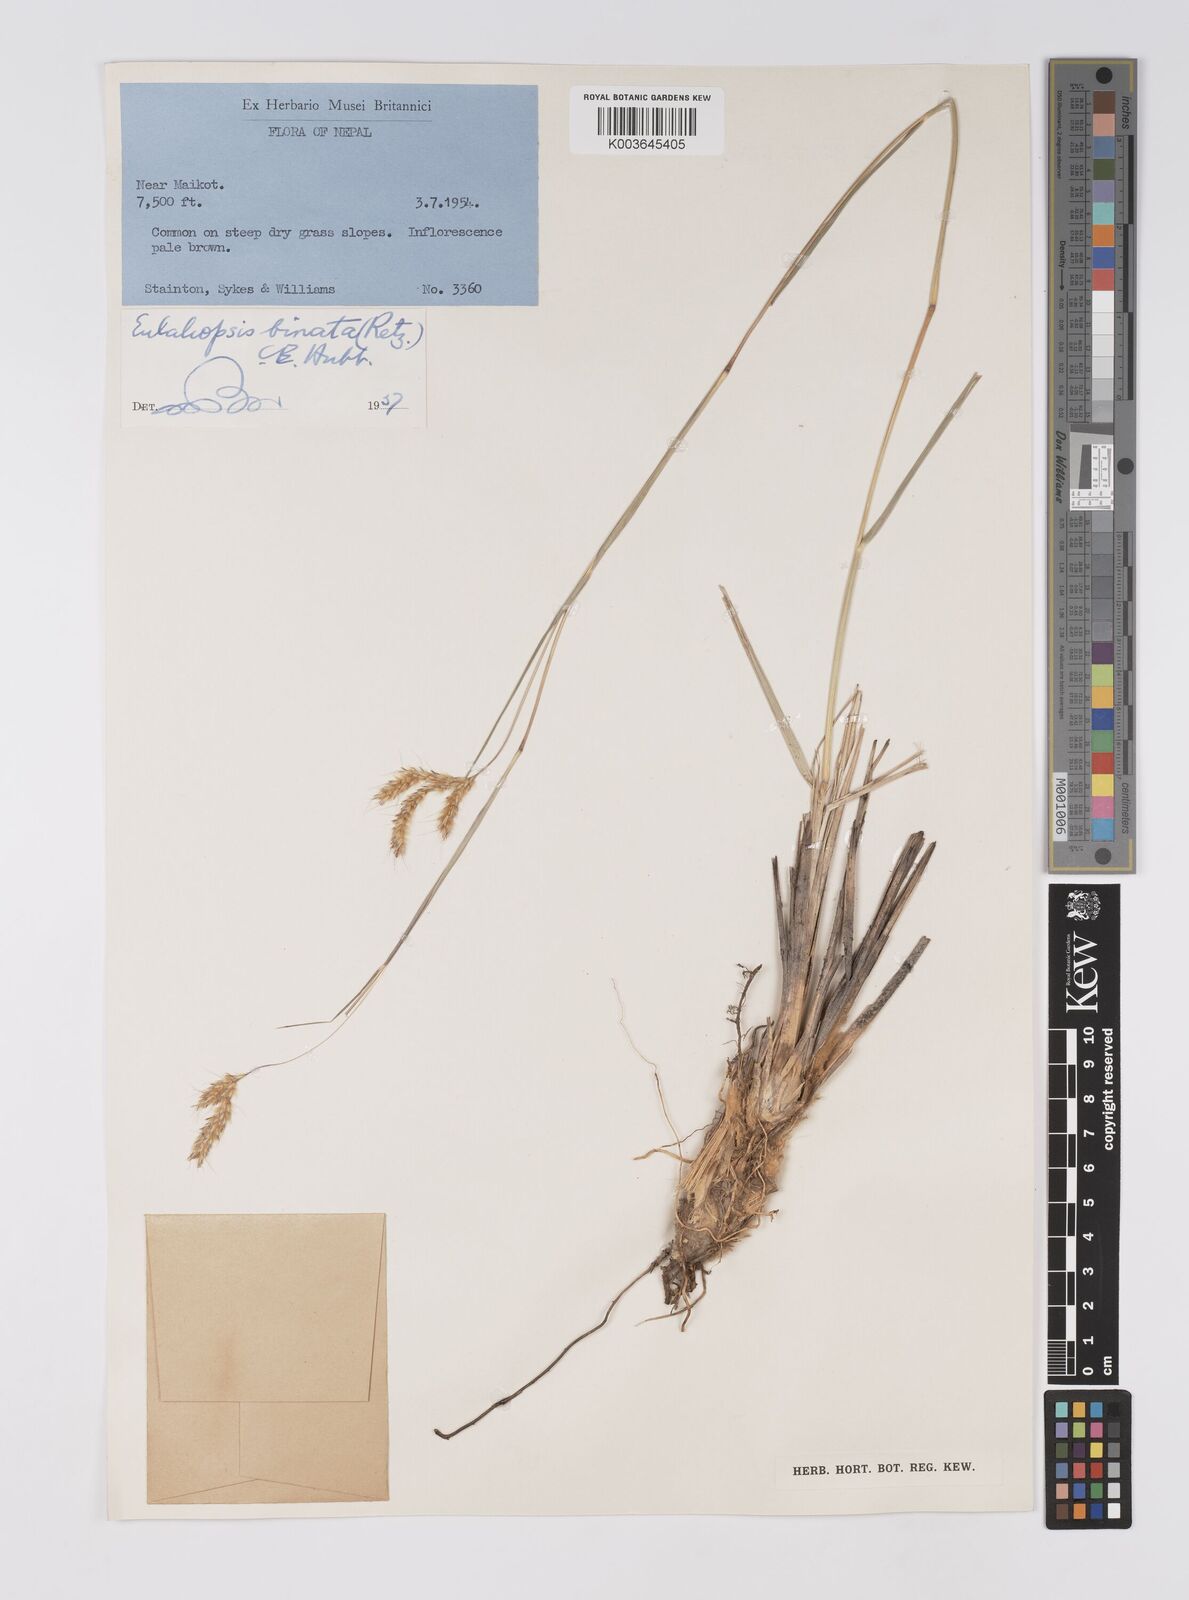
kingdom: Plantae
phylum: Tracheophyta
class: Liliopsida
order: Poales
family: Poaceae
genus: Eulaliopsis
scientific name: Eulaliopsis binata
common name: Baib grass
